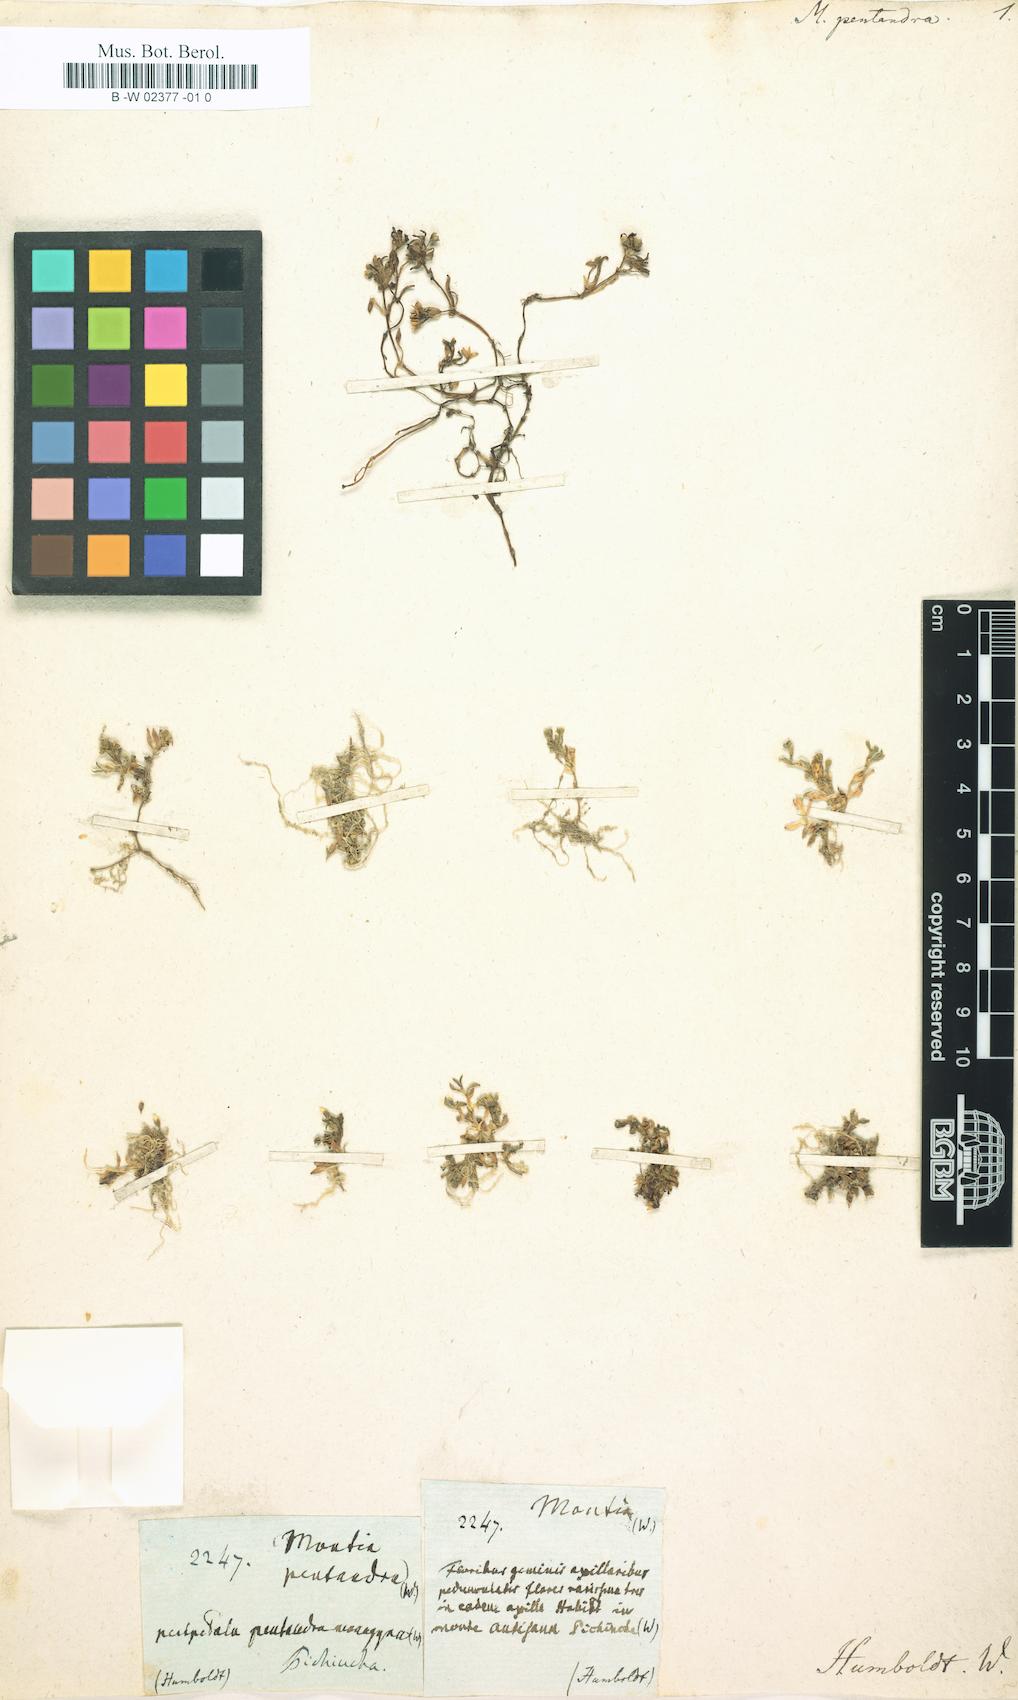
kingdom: Plantae
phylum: Tracheophyta
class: Magnoliopsida
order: Caryophyllales
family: Montiaceae
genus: Montia
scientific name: Montia fontana
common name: Blinks
